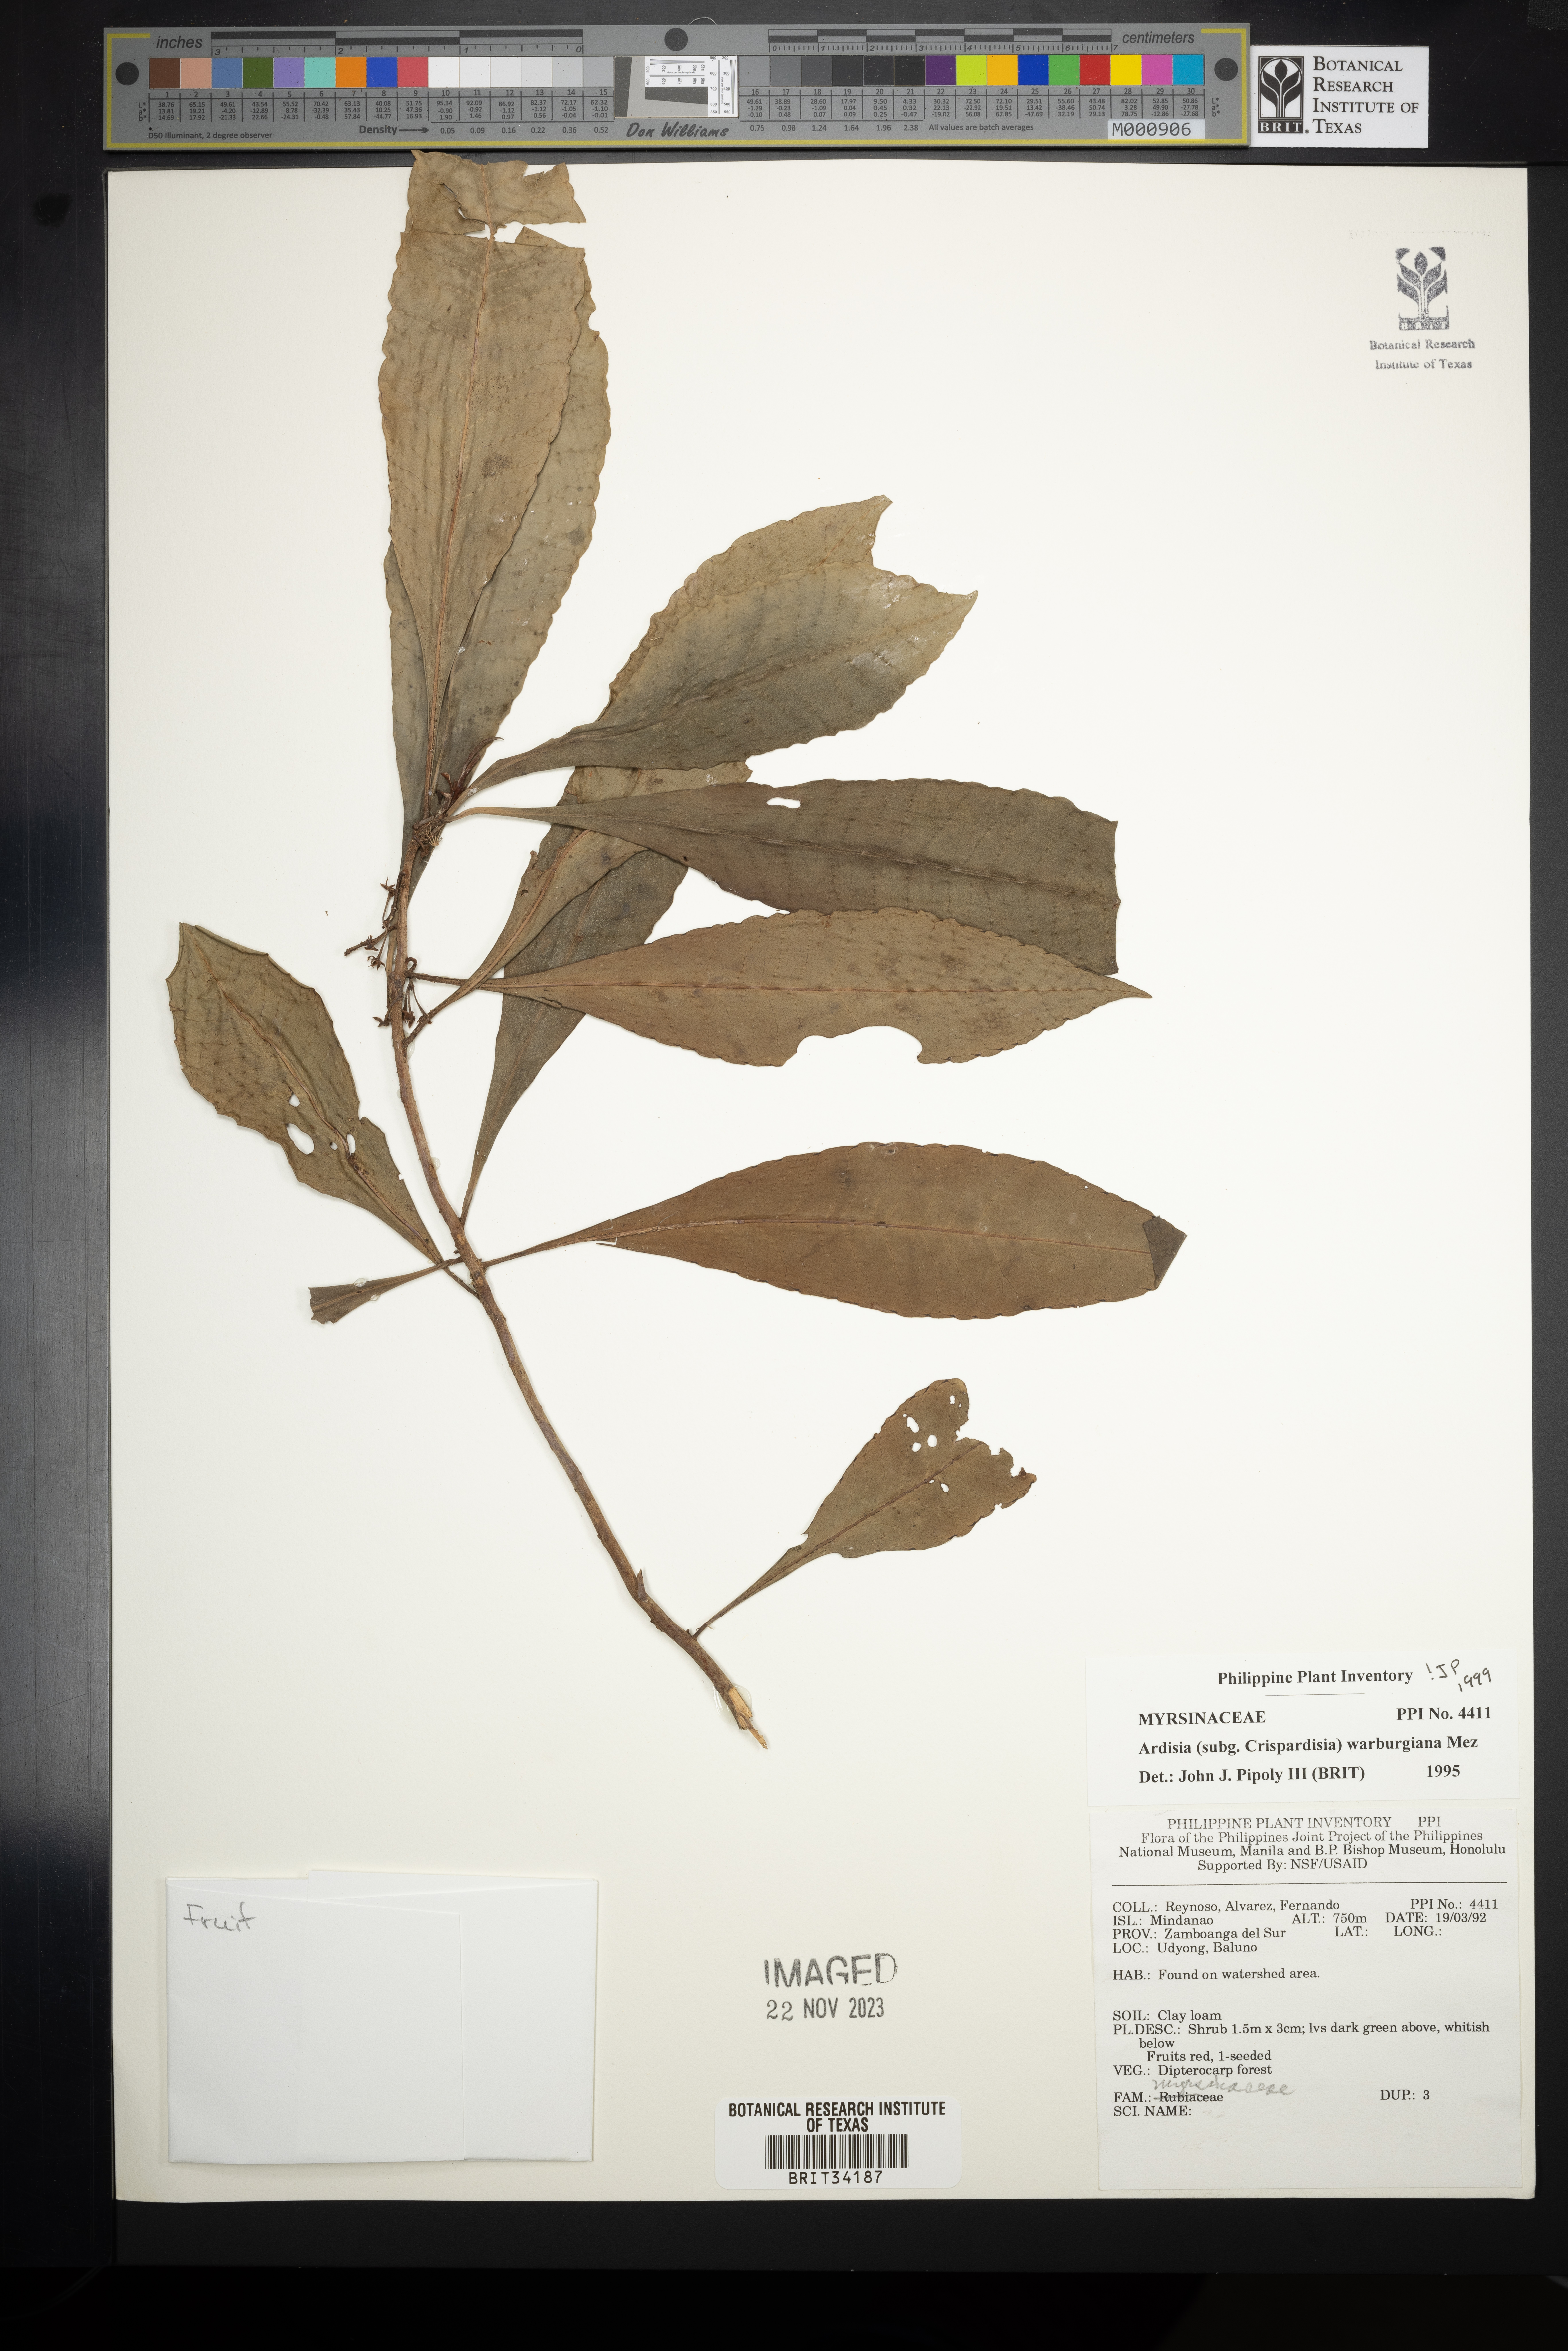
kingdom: Plantae
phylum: Tracheophyta
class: Magnoliopsida
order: Ericales
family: Primulaceae
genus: Ardisia
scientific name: Ardisia warburgiana
